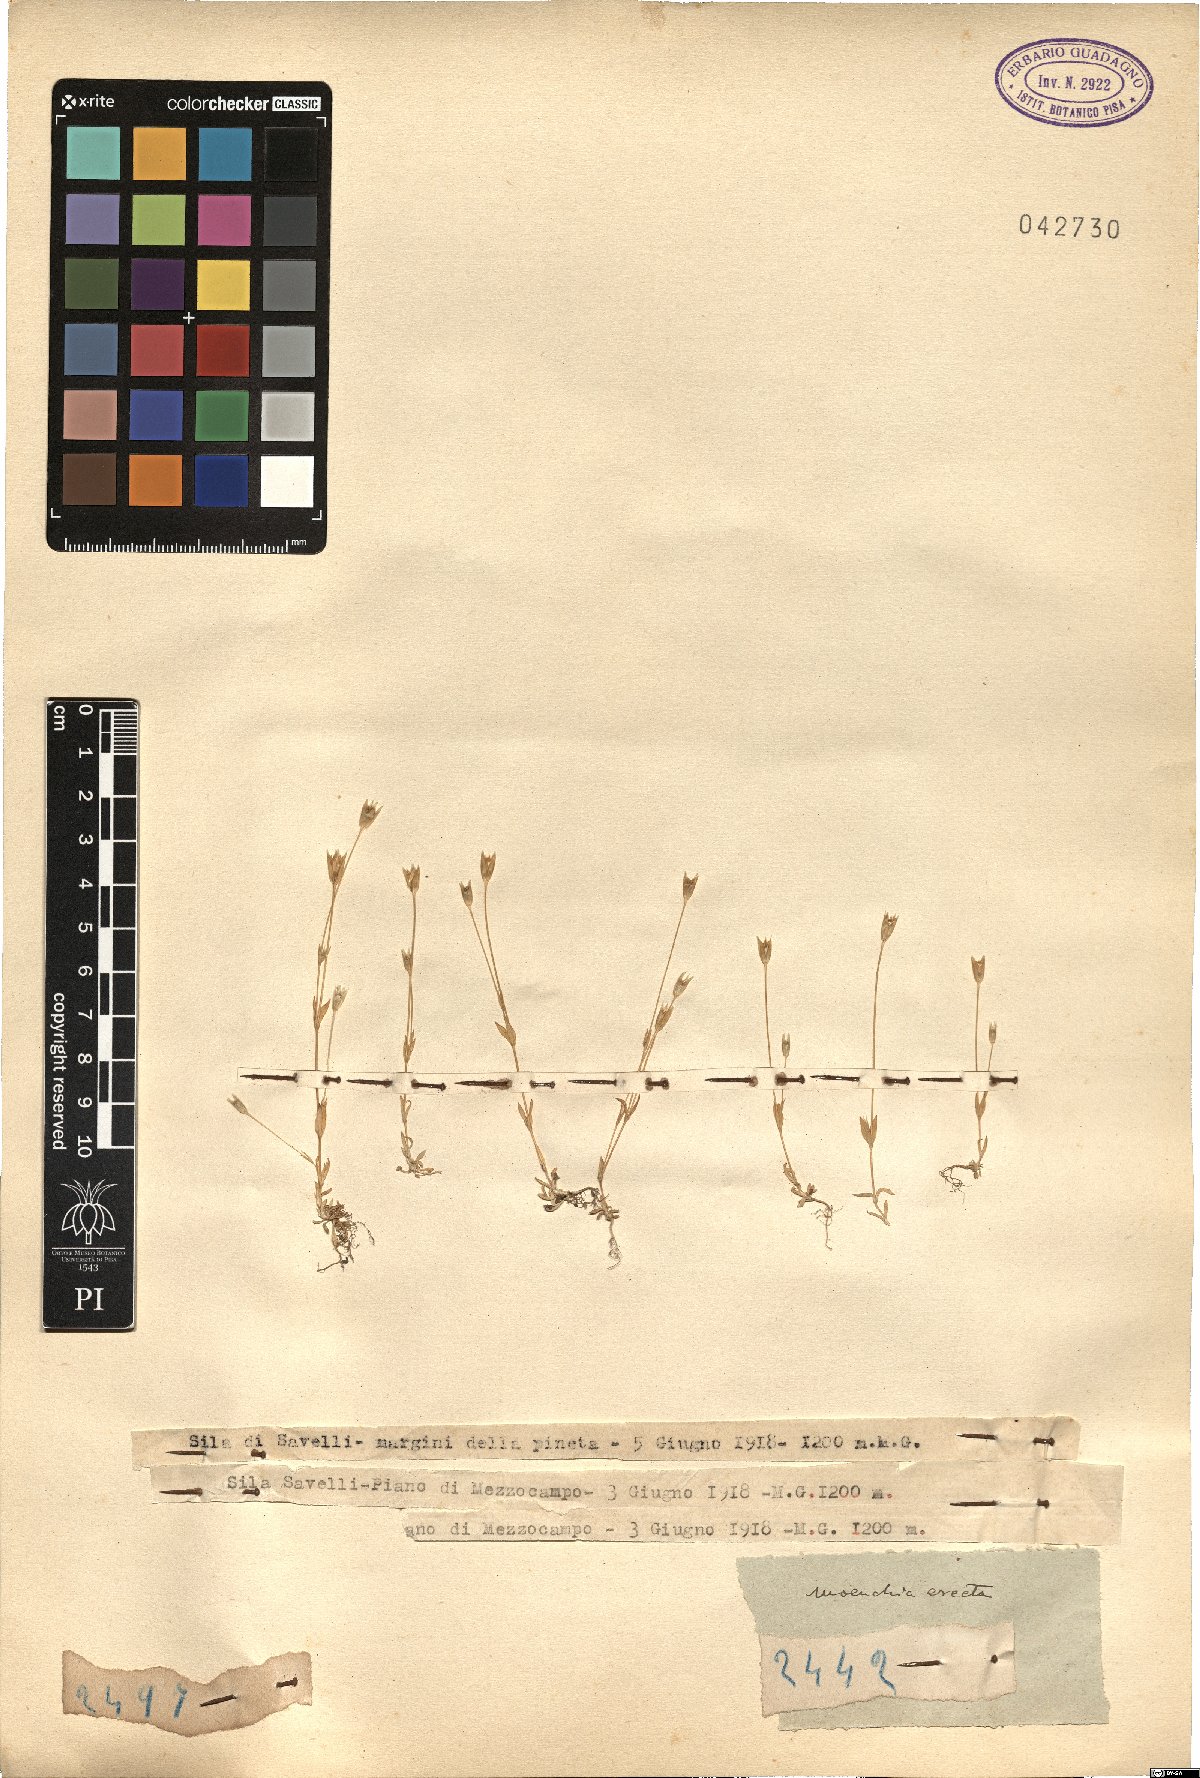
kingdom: Plantae
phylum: Tracheophyta
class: Magnoliopsida
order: Caryophyllales
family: Caryophyllaceae
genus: Moenchia
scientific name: Moenchia erecta
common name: Upright chickweed
